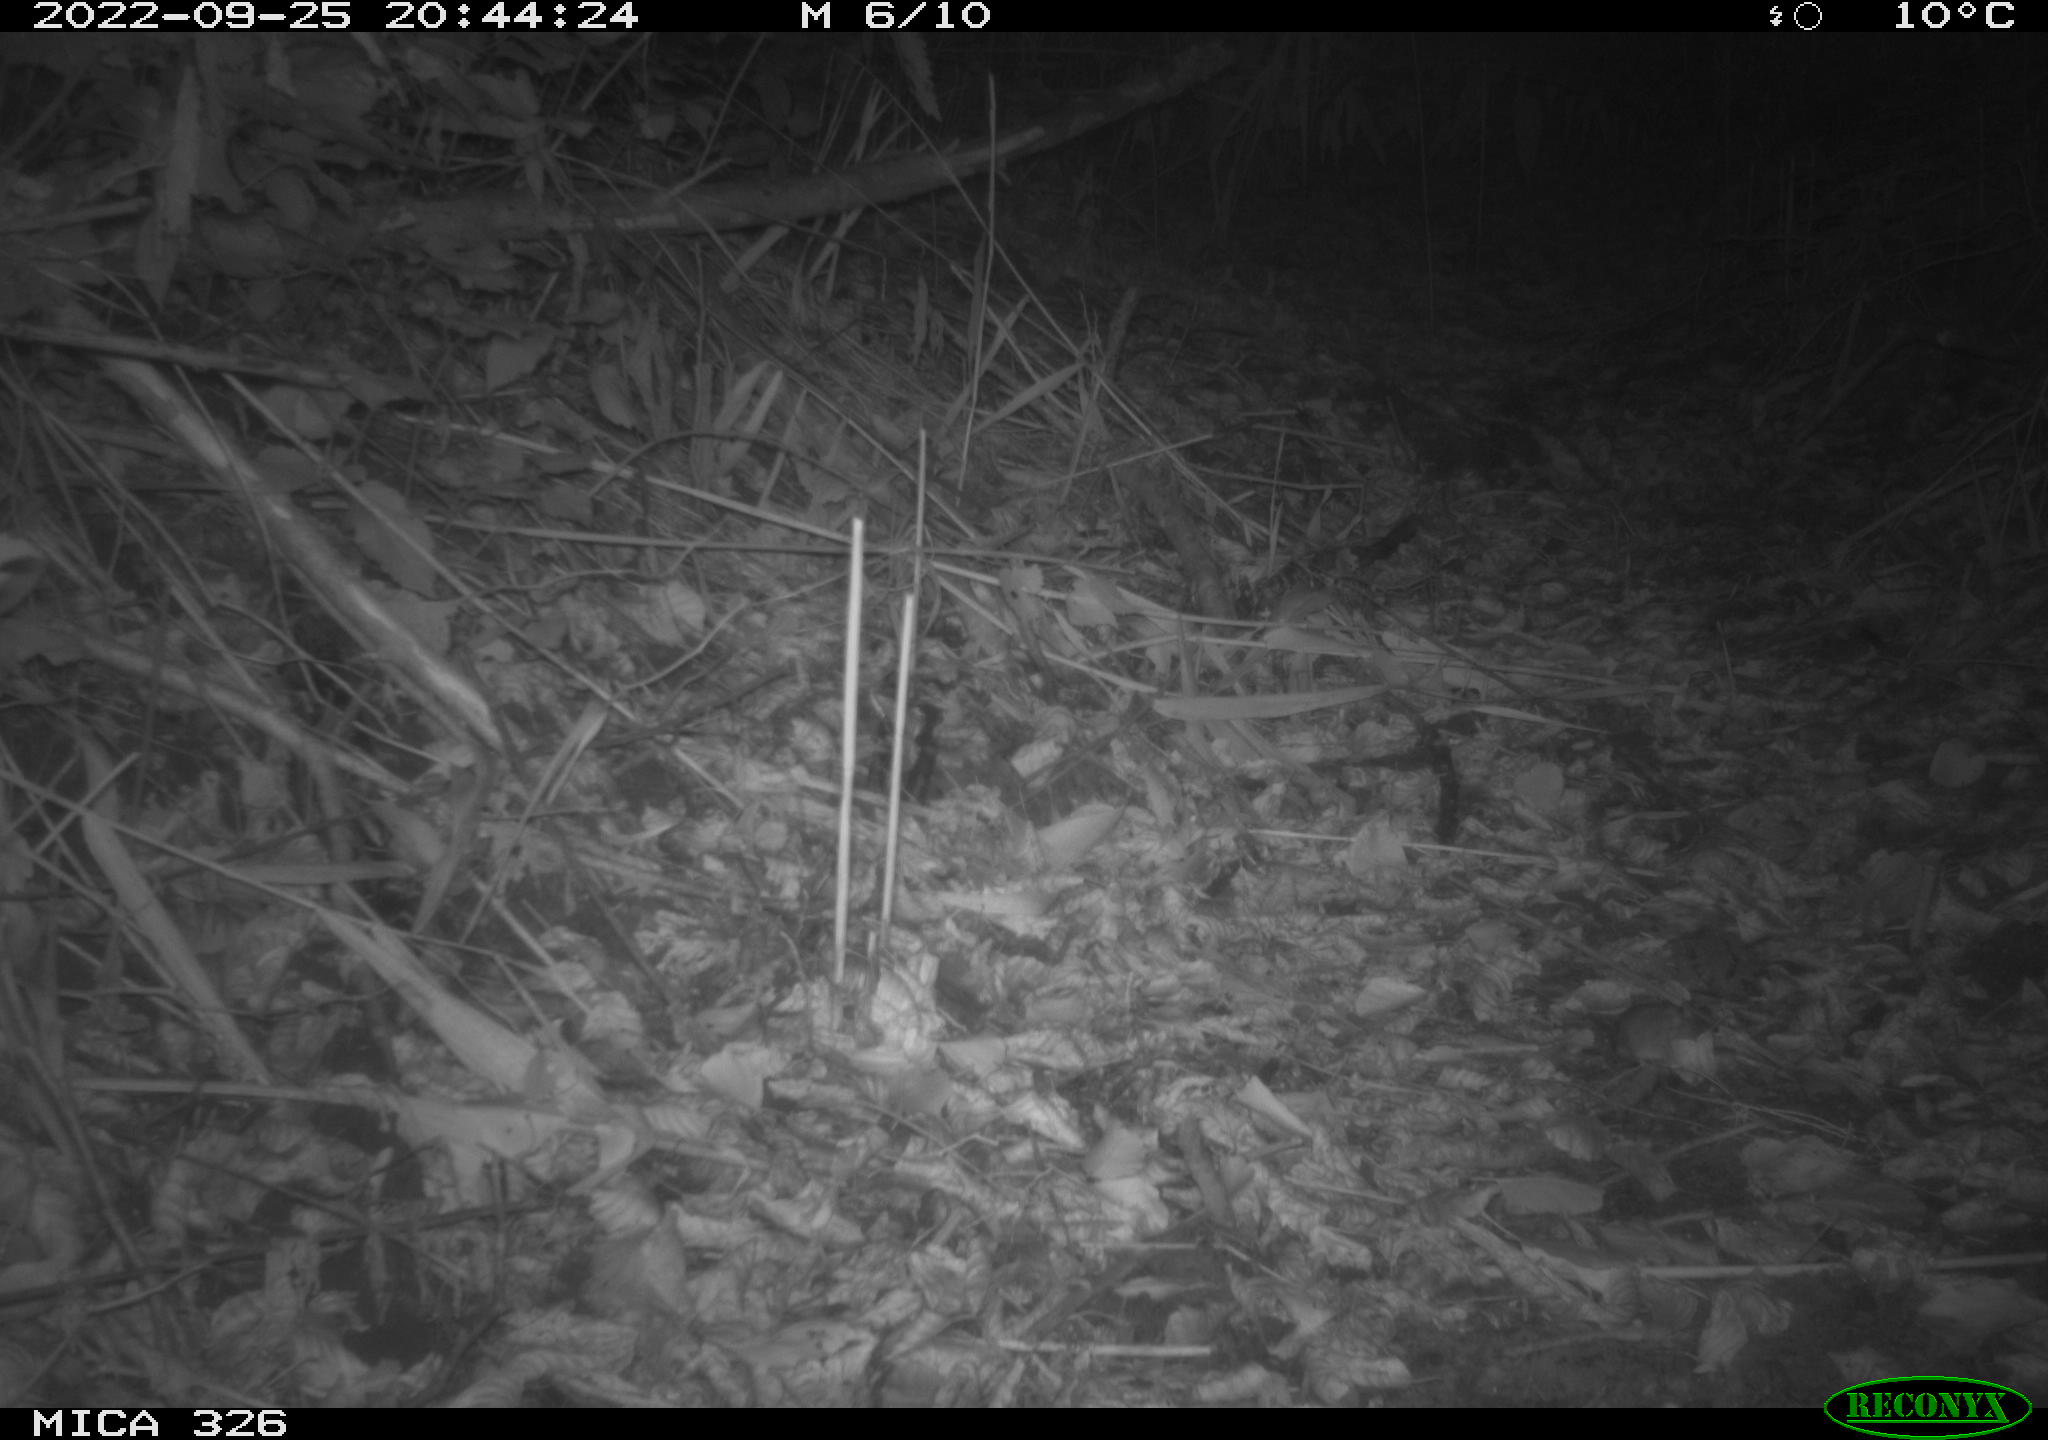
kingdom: Animalia
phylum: Chordata
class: Mammalia
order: Rodentia
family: Muridae
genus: Apodemus
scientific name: Apodemus sylvaticus
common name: Wood mouse
